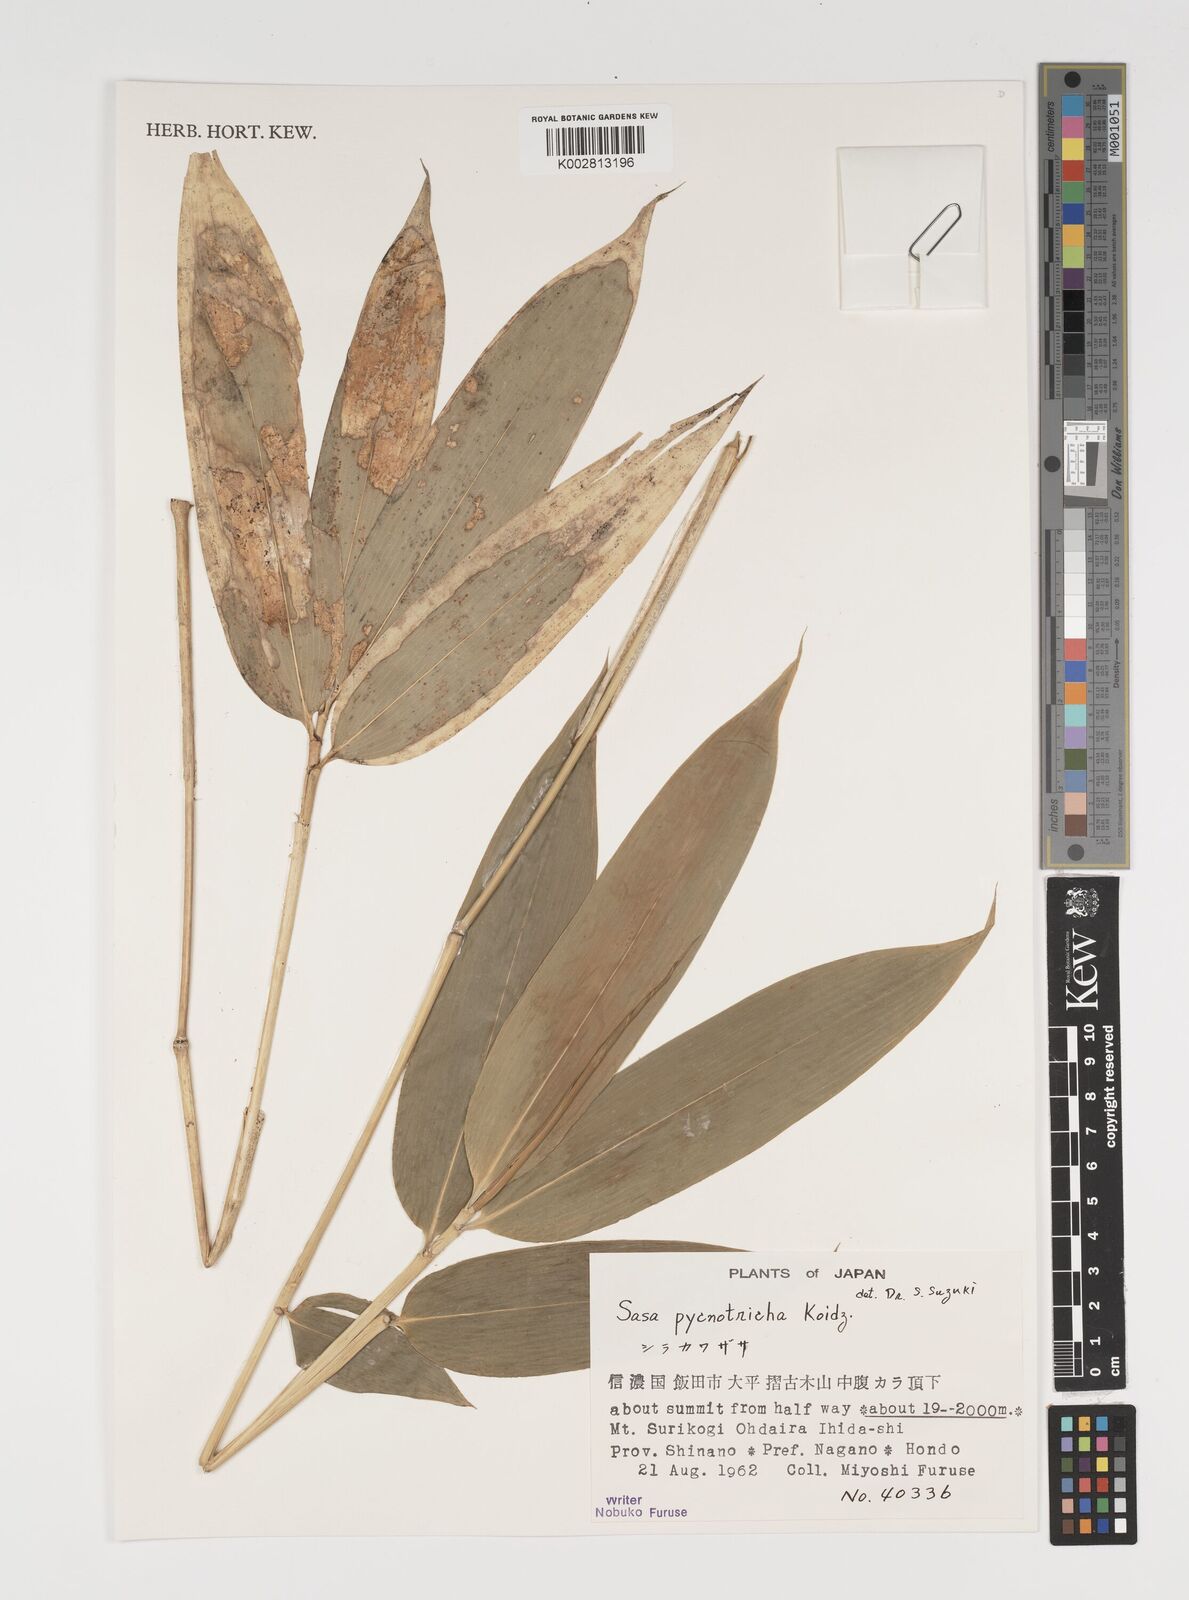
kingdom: Plantae
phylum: Tracheophyta
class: Liliopsida
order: Poales
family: Poaceae
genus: Sasa
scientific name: Sasa nipponica
